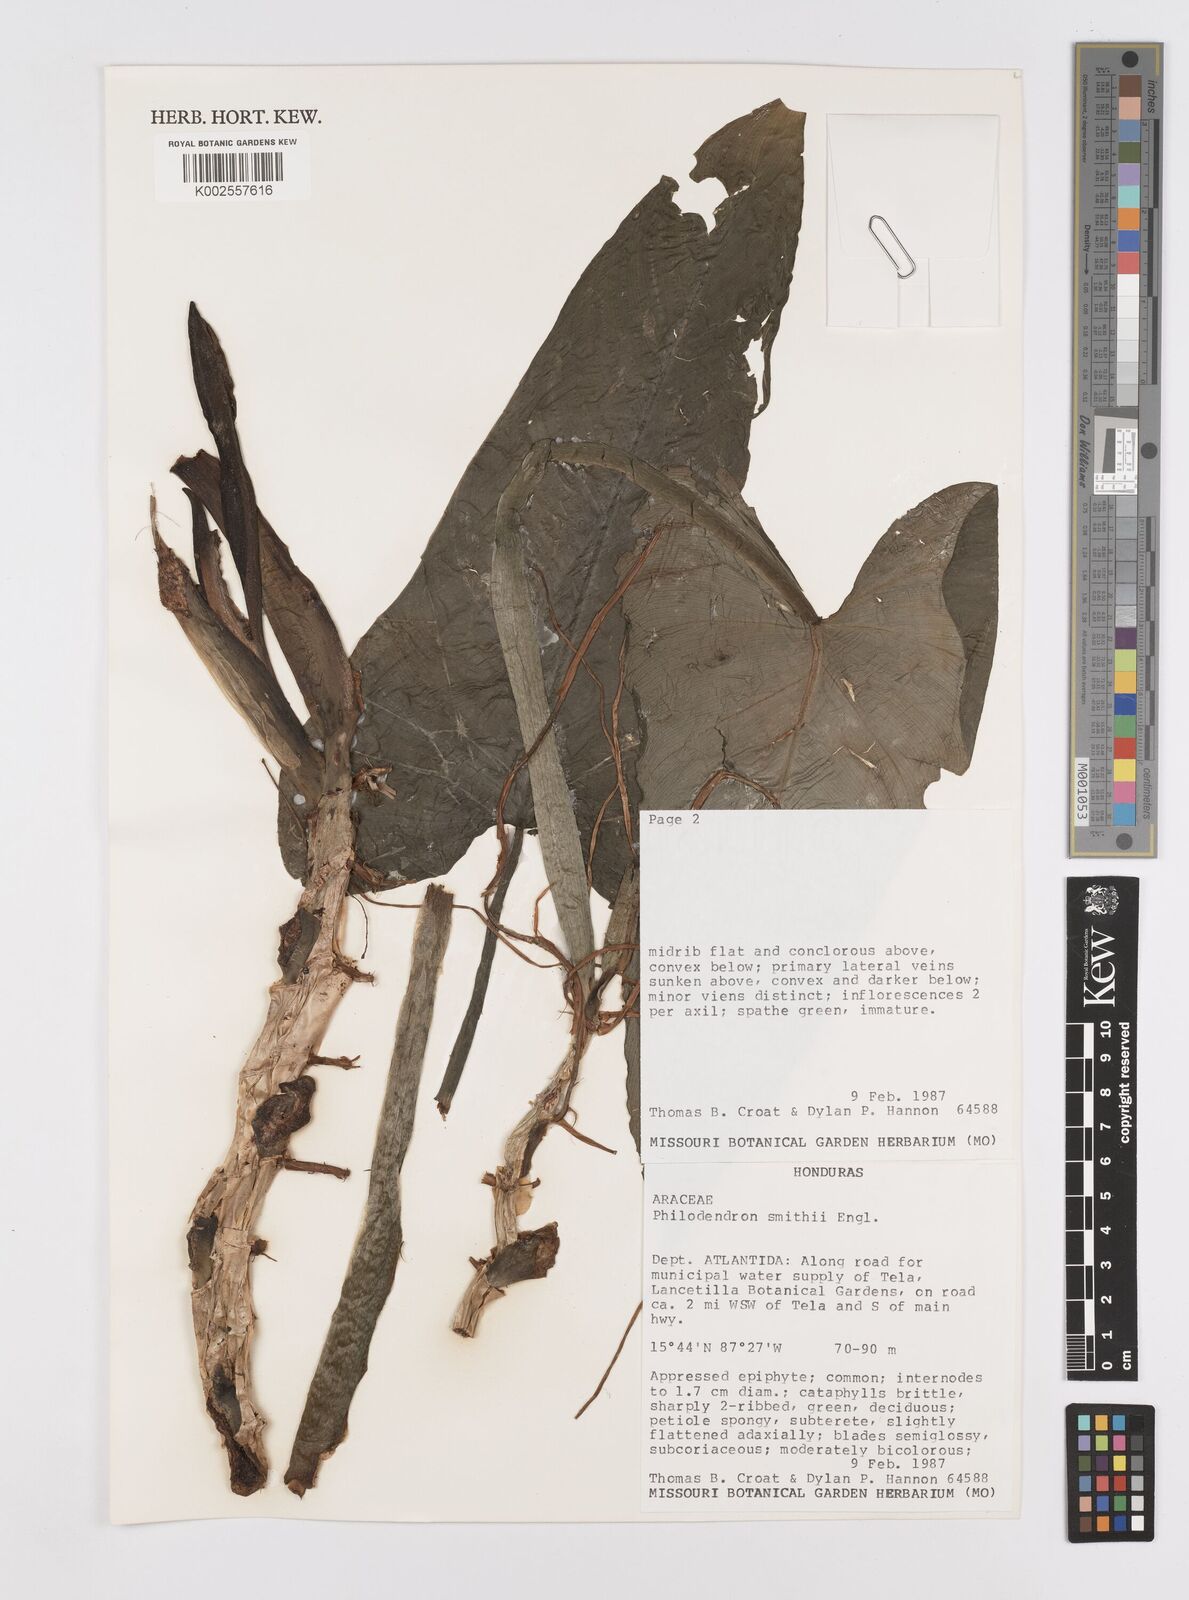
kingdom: Plantae
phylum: Tracheophyta
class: Liliopsida
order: Alismatales
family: Araceae
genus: Philodendron
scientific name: Philodendron smithii
